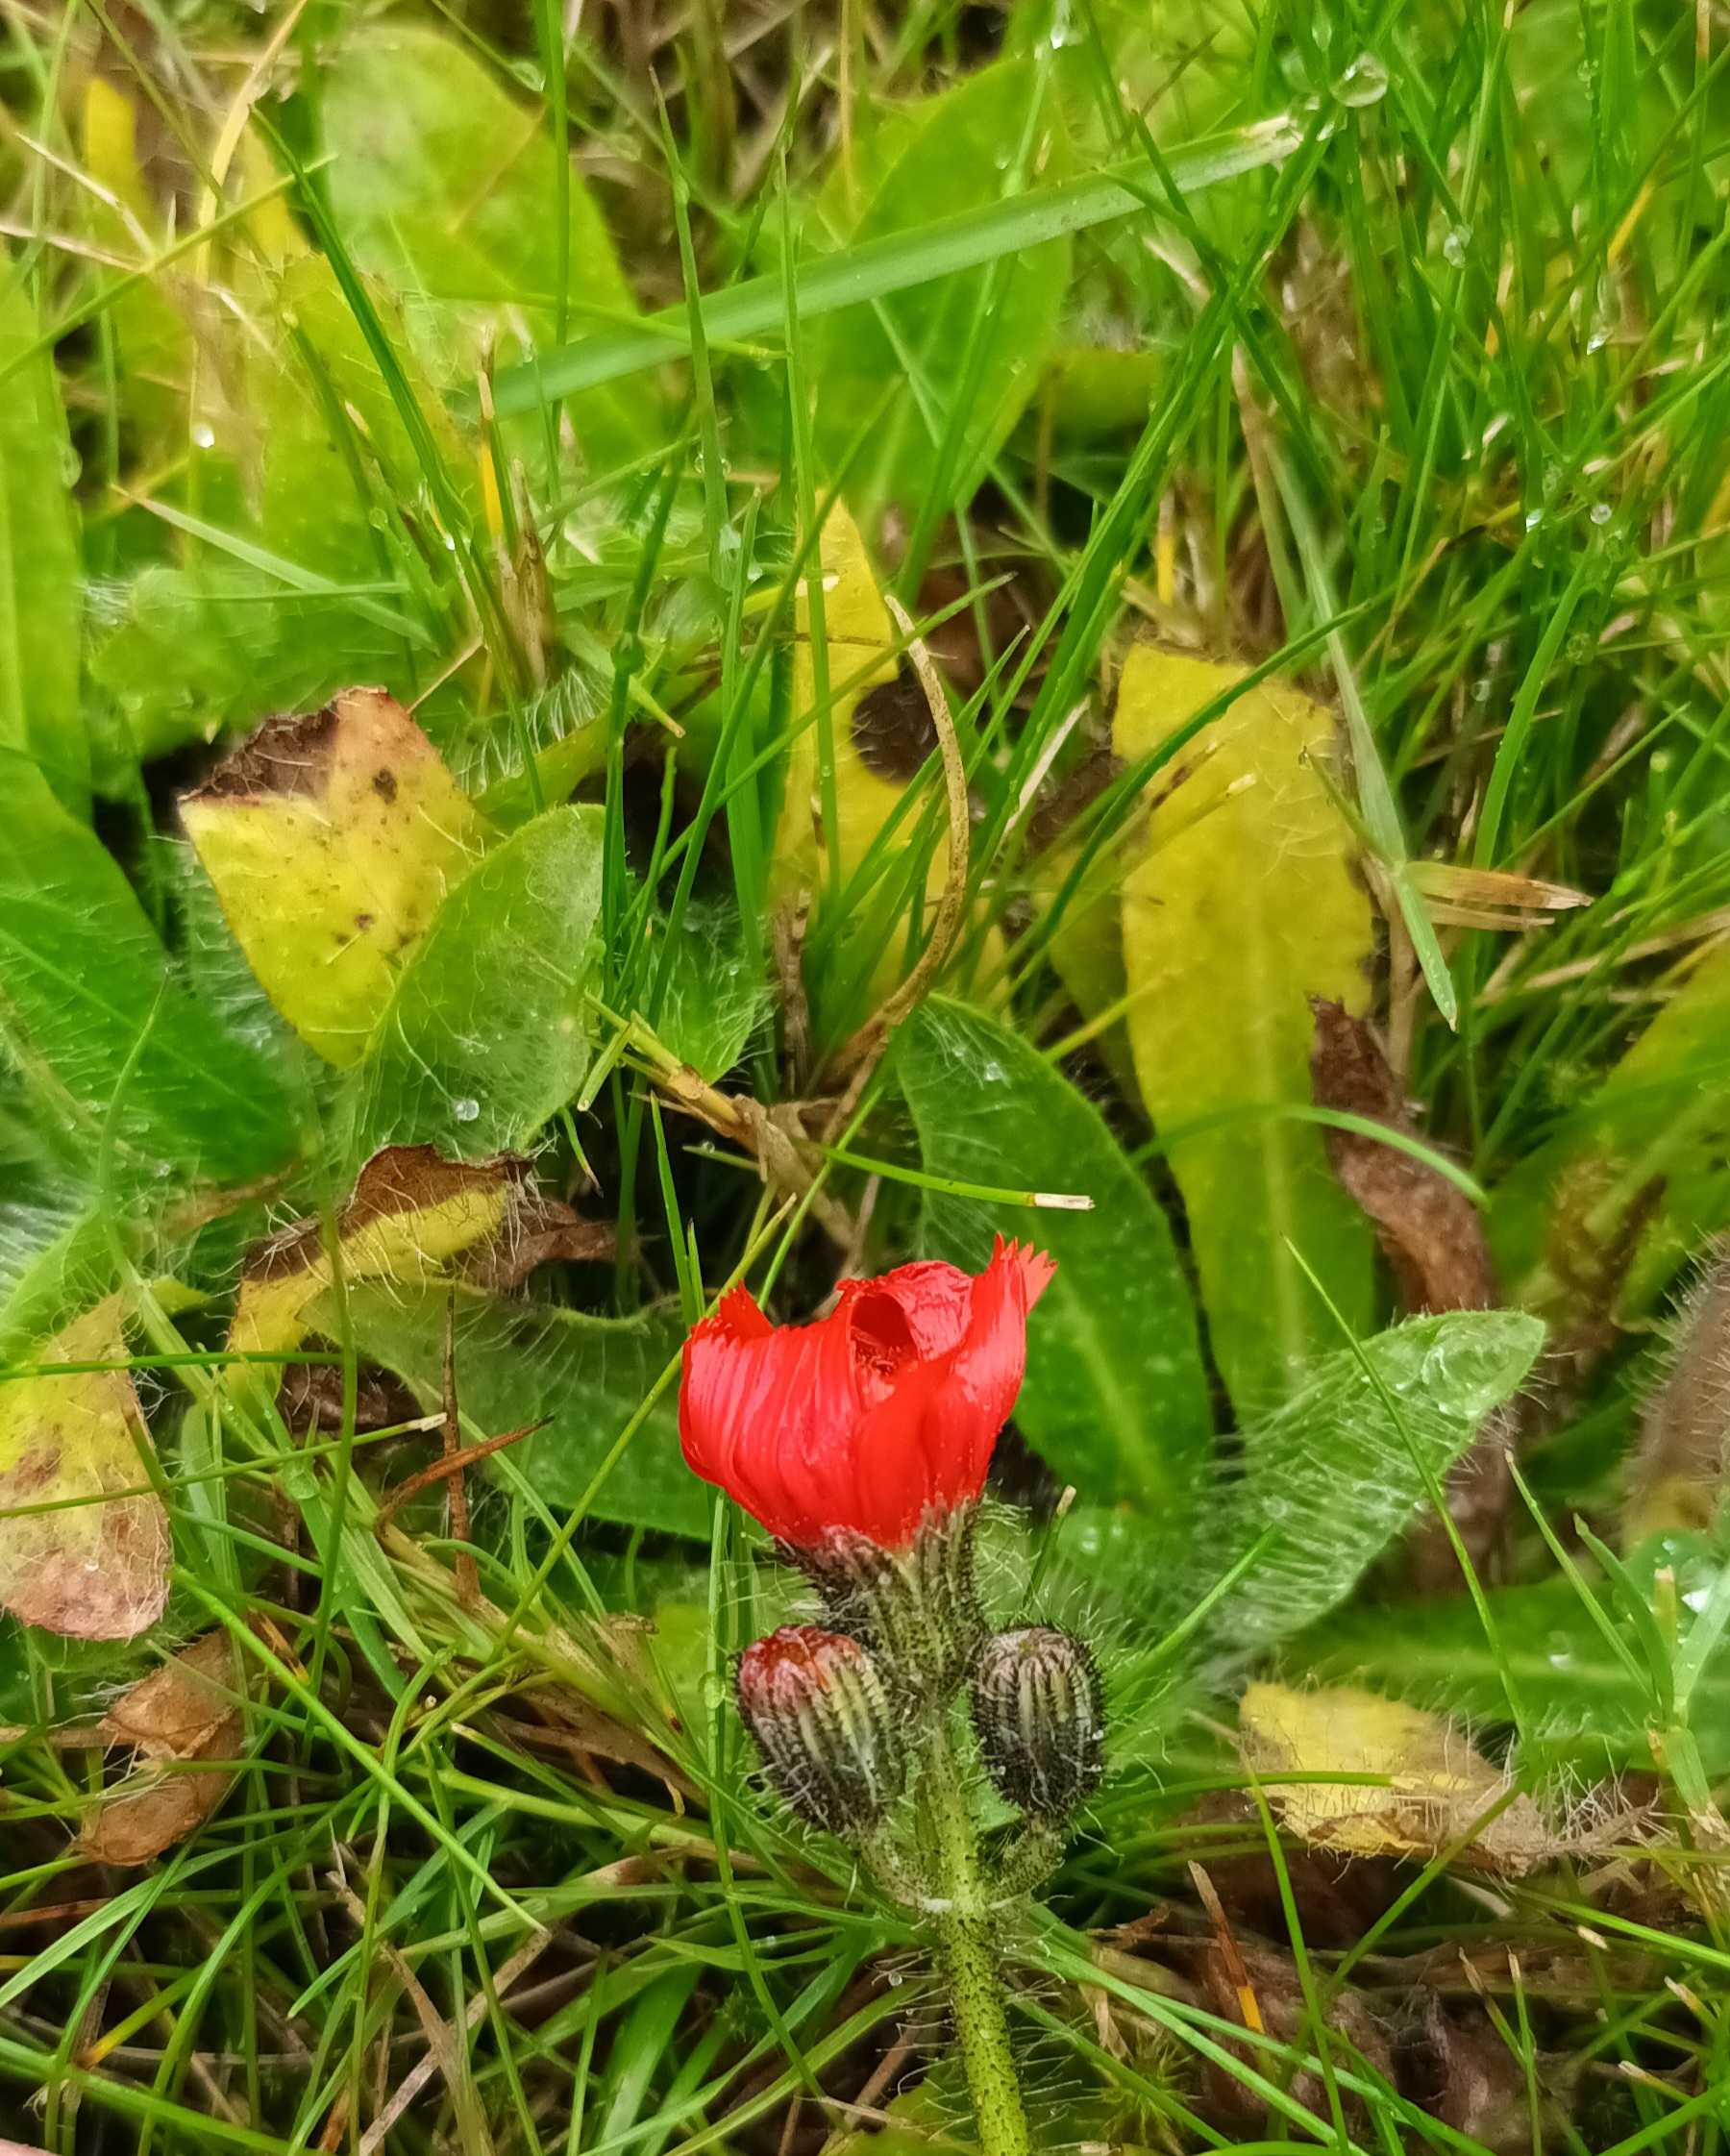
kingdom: Plantae
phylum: Tracheophyta
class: Magnoliopsida
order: Asterales
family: Asteraceae
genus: Pilosella
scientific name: Pilosella aurantiaca
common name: Pomerans-høgeurt
